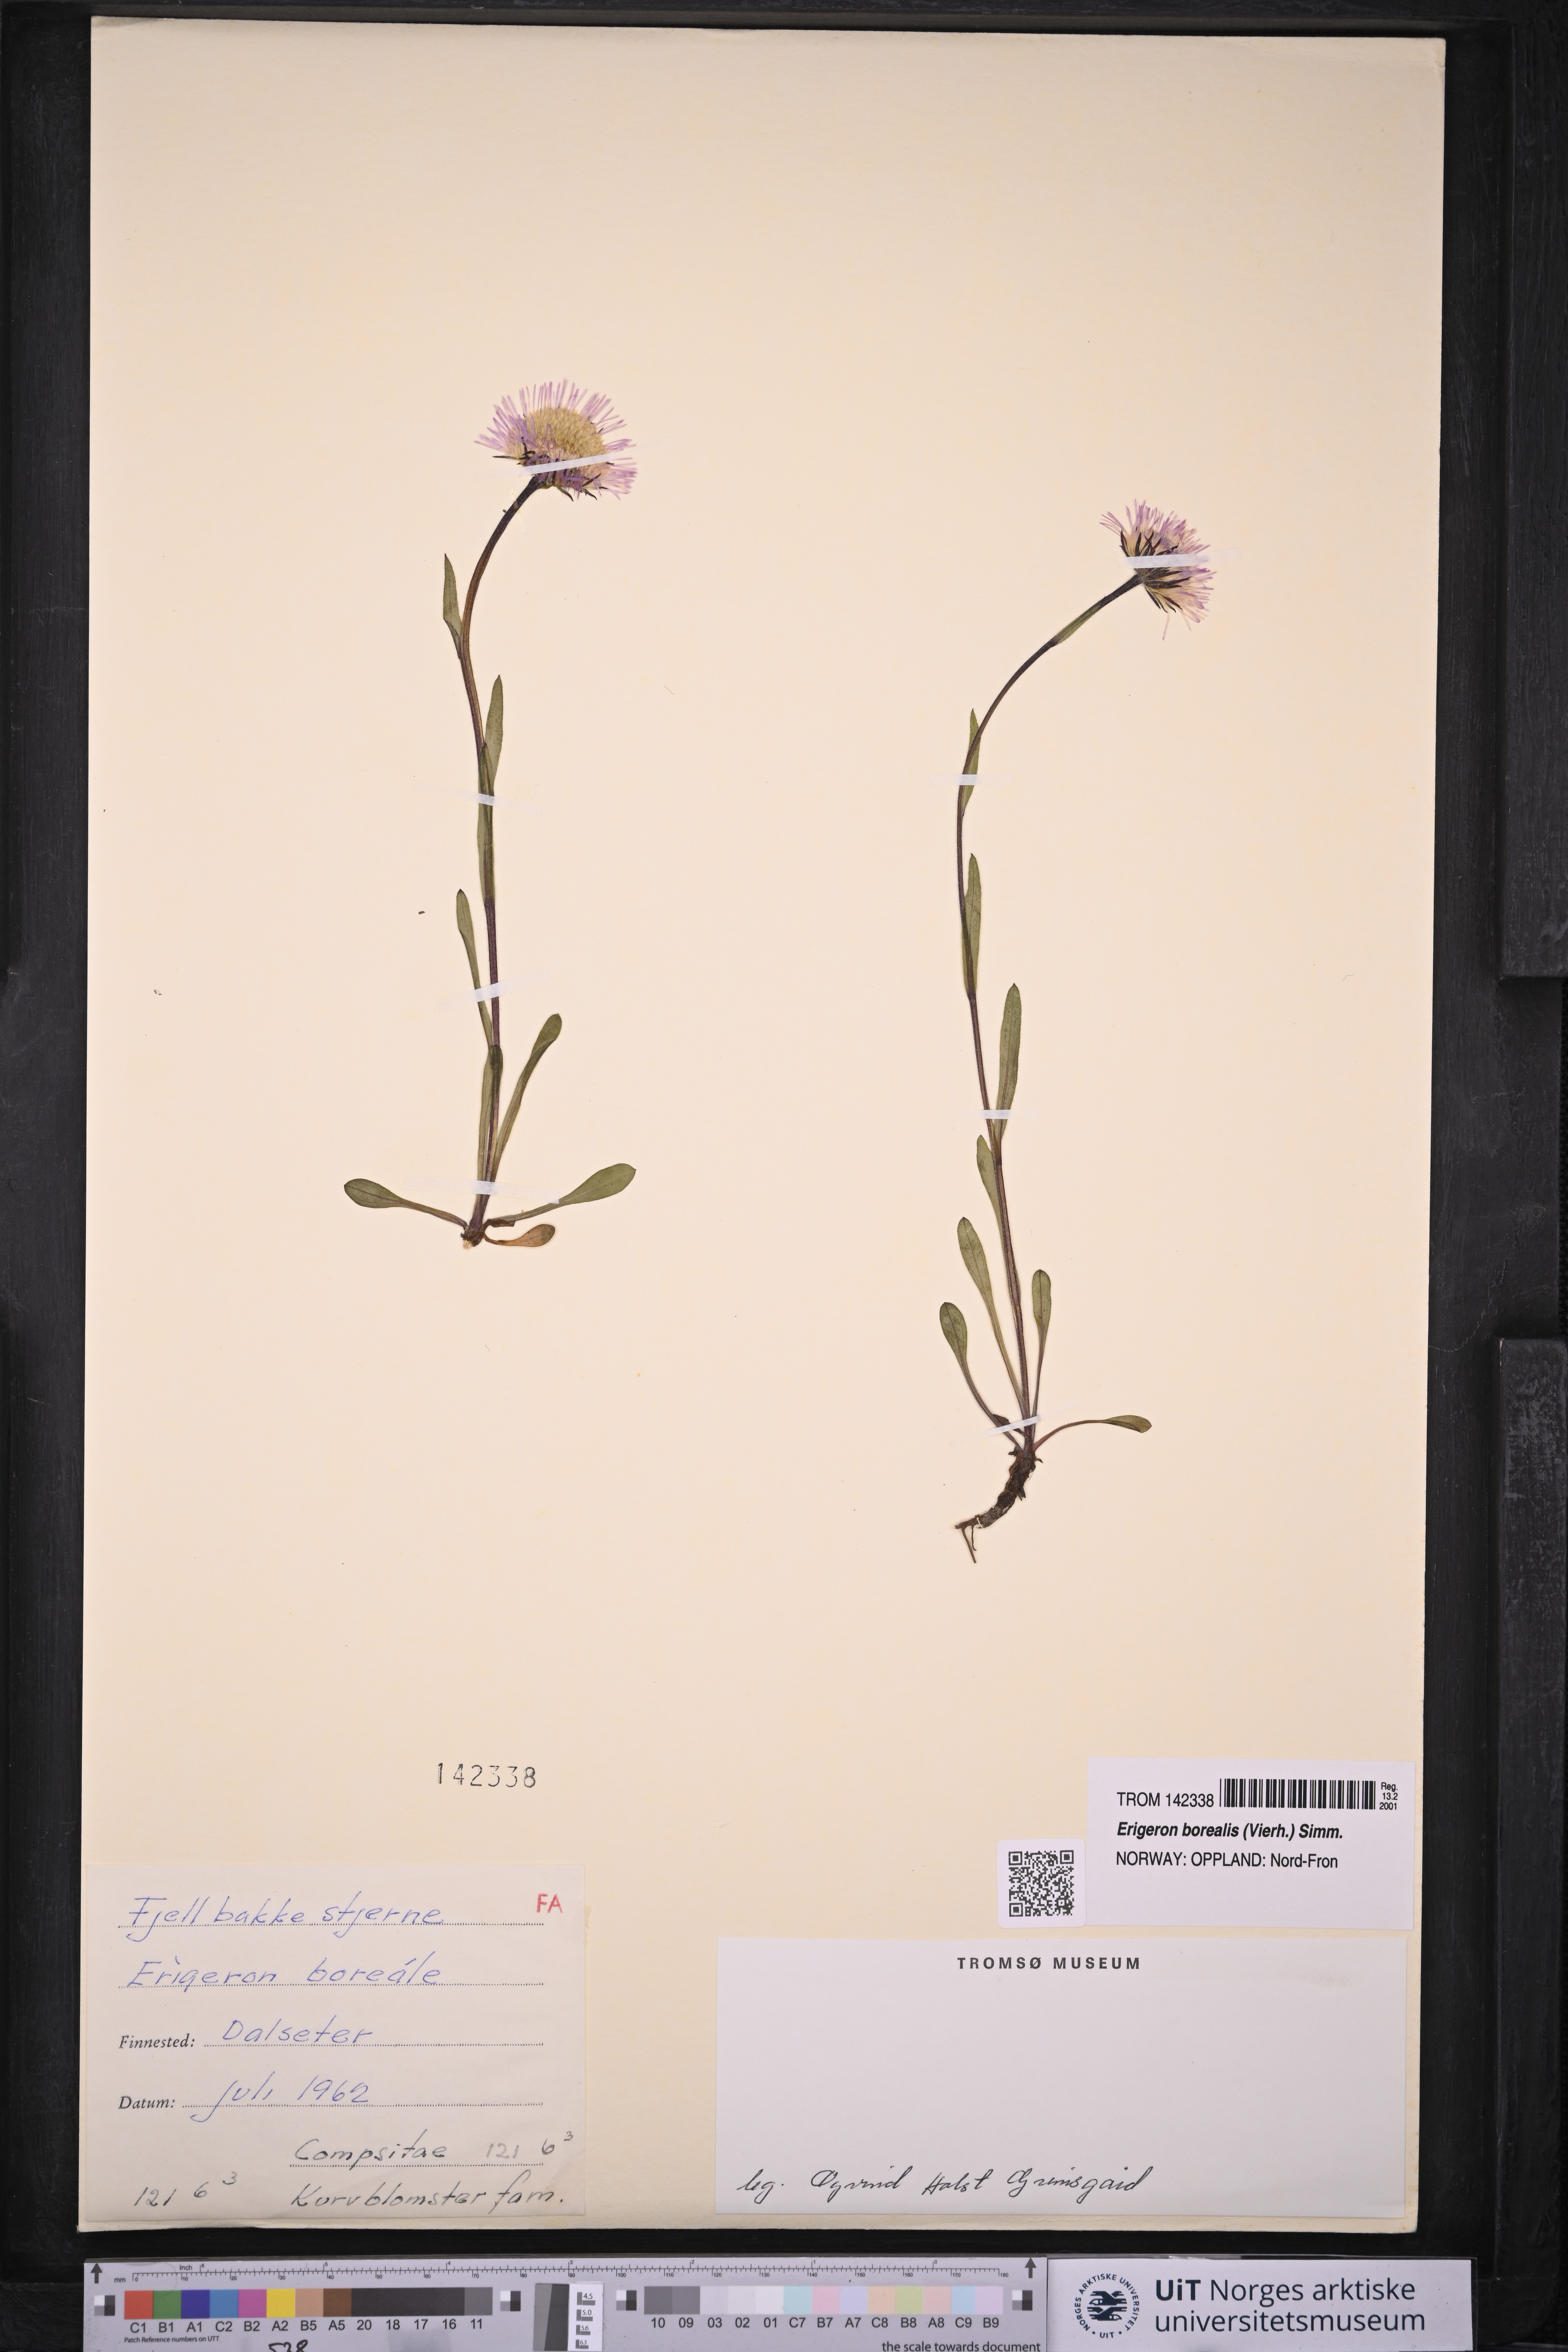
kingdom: Plantae
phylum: Tracheophyta
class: Magnoliopsida
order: Asterales
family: Asteraceae
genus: Erigeron
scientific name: Erigeron borealis
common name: Alpine fleabane
